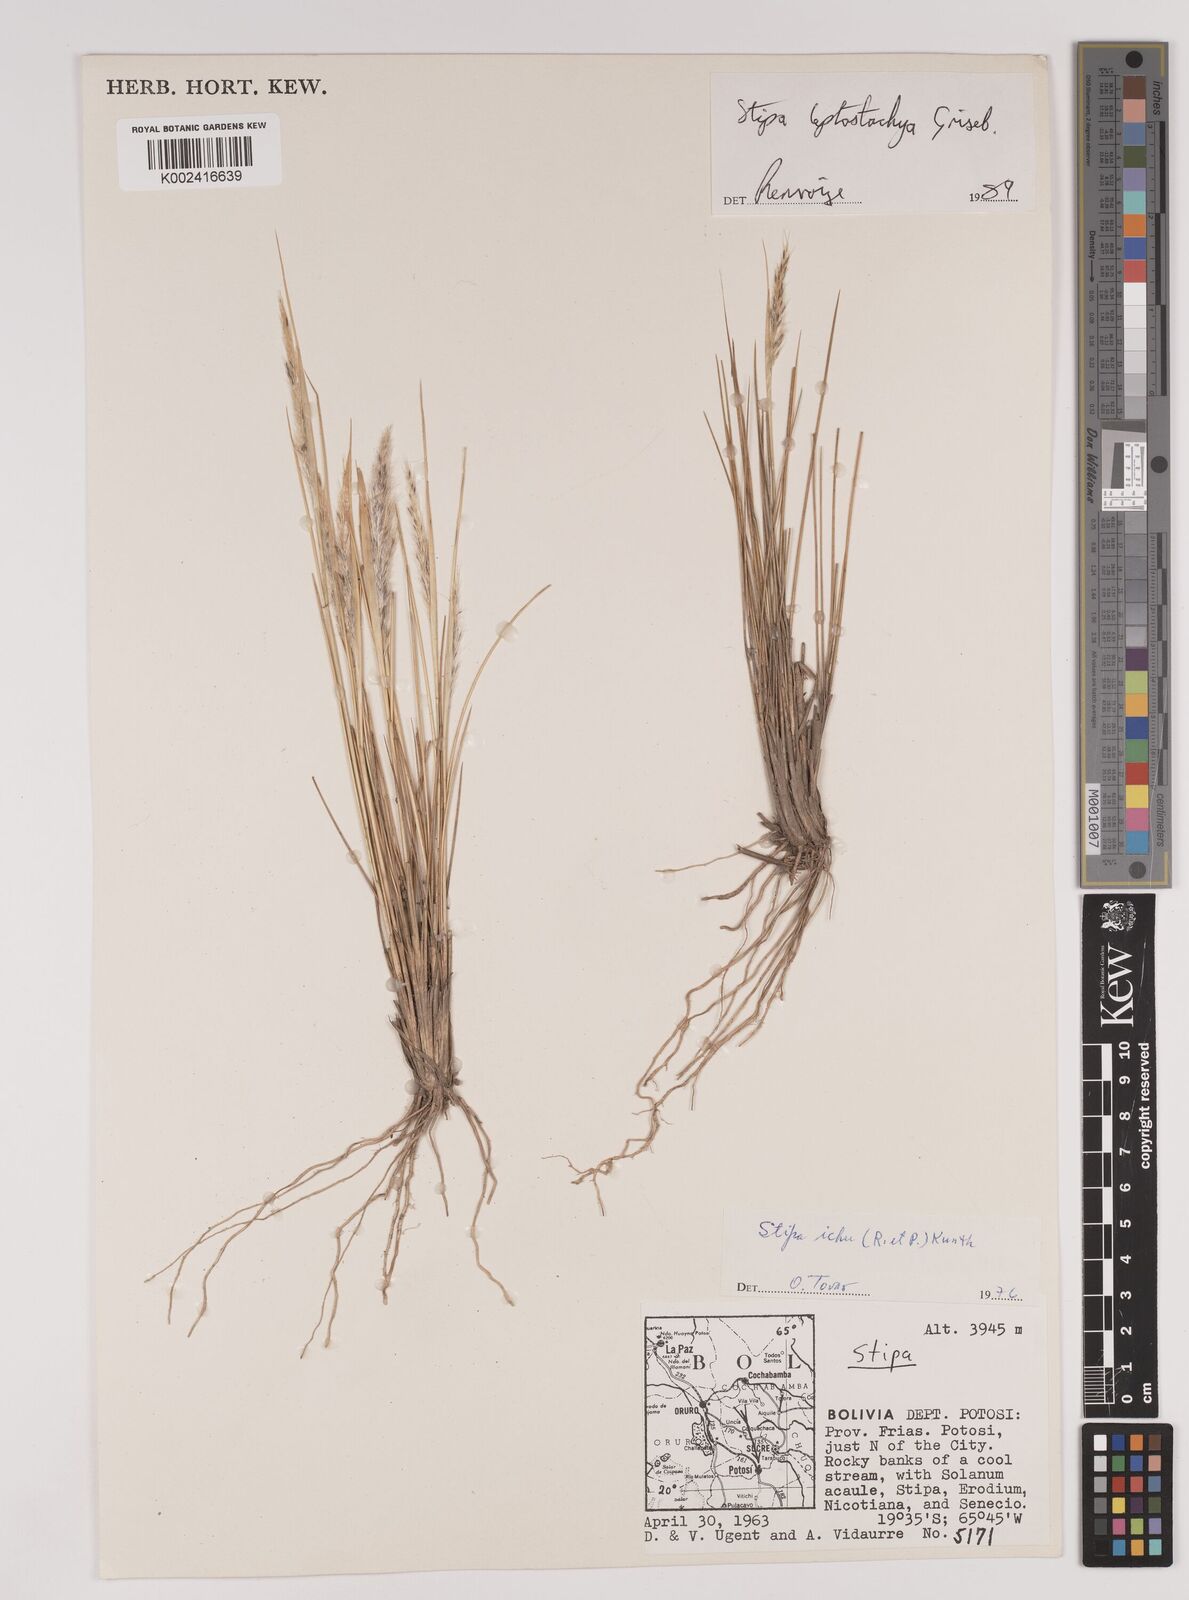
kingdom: Plantae
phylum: Tracheophyta
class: Liliopsida
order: Poales
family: Poaceae
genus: Jarava
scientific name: Jarava leptostachya
